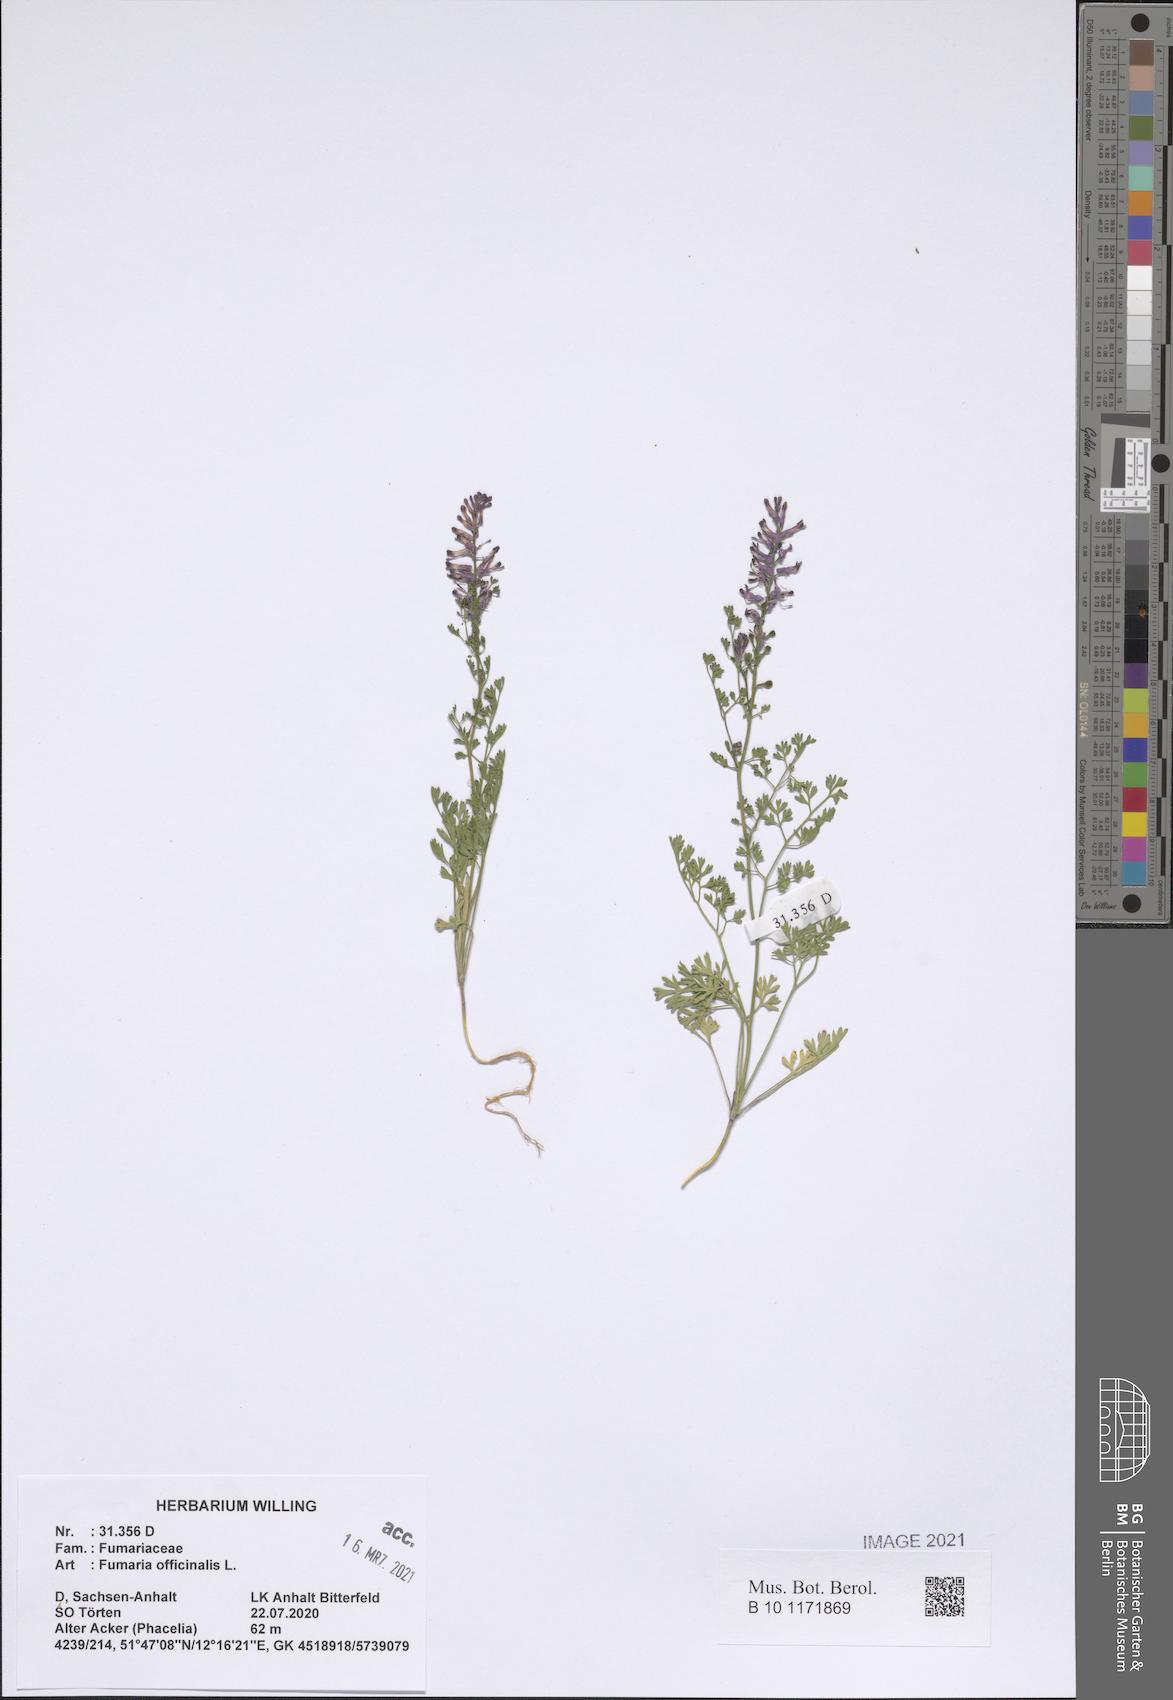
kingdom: Plantae
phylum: Tracheophyta
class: Magnoliopsida
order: Ranunculales
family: Papaveraceae
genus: Fumaria
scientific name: Fumaria officinalis
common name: Common fumitory
